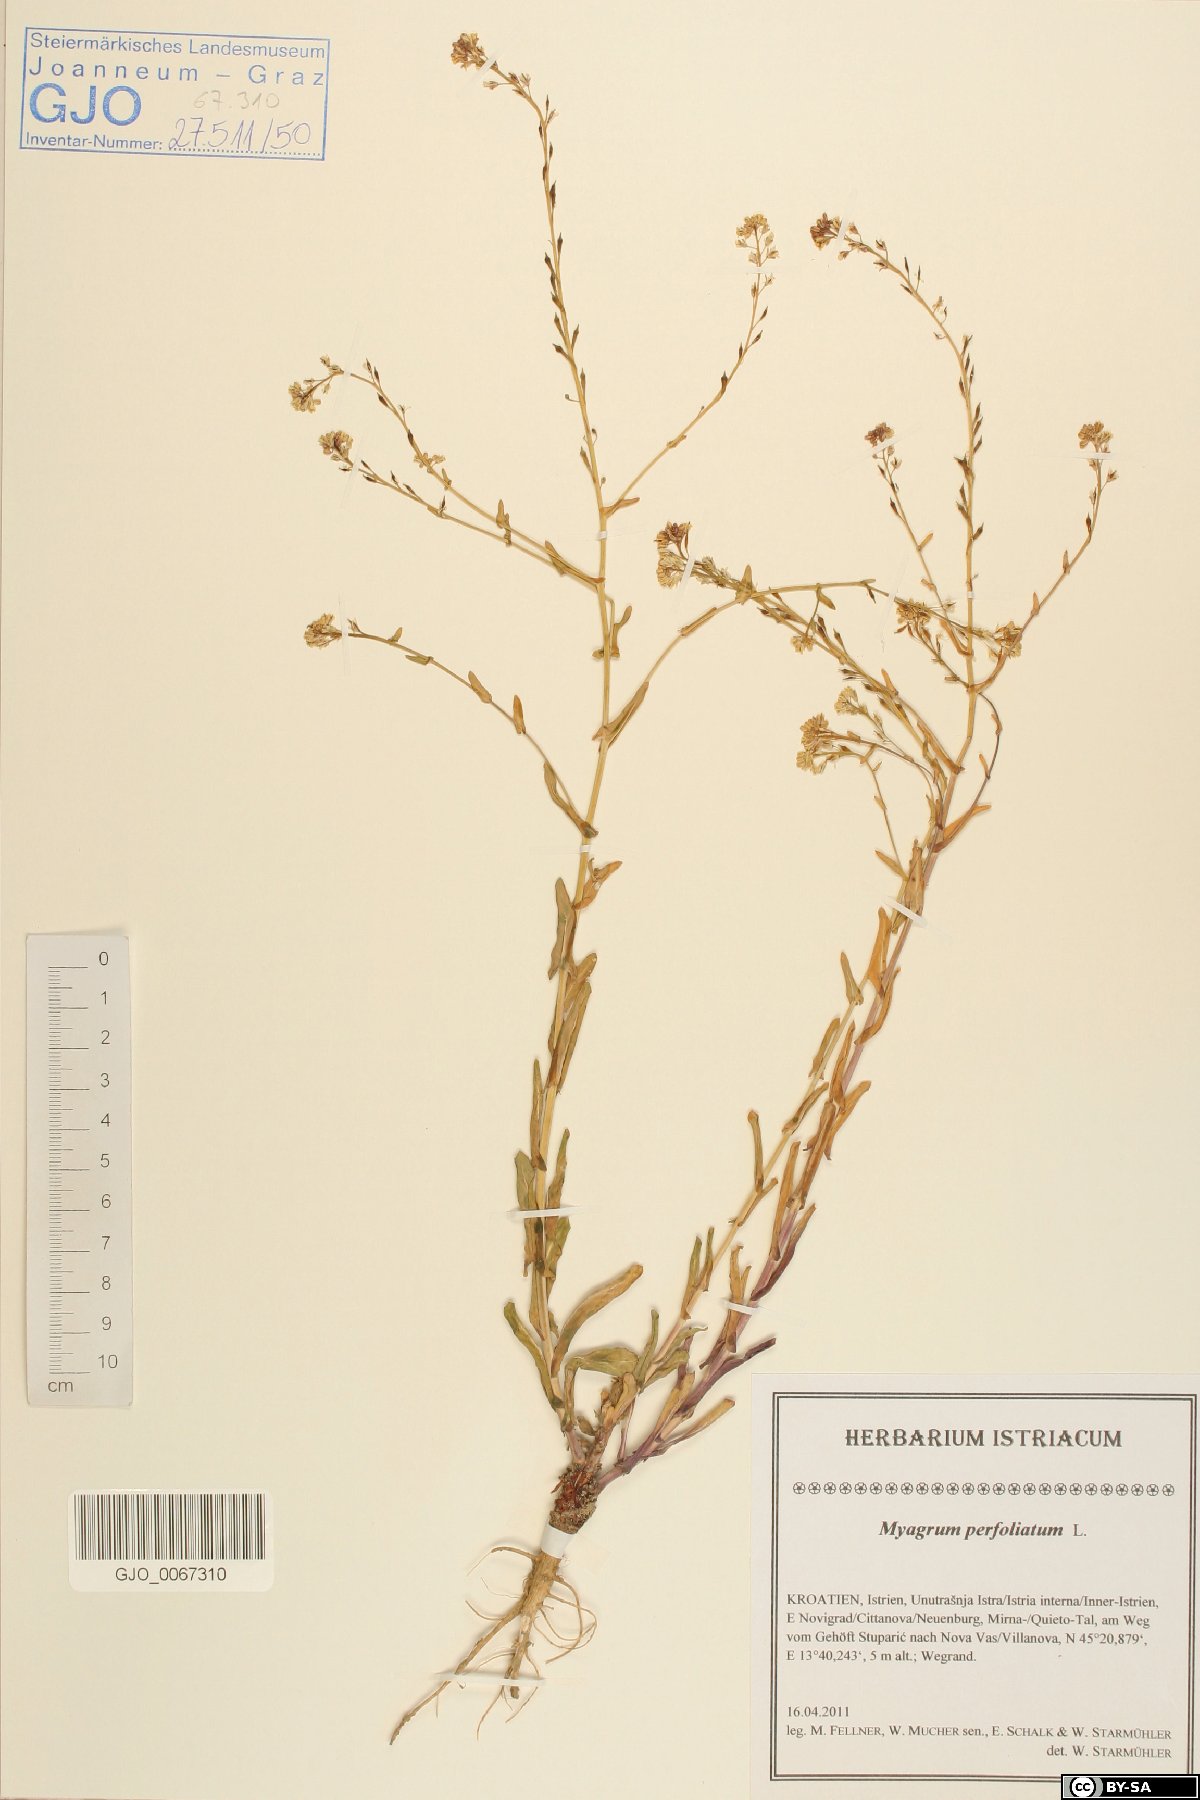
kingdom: Plantae
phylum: Tracheophyta
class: Magnoliopsida
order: Brassicales
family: Brassicaceae
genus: Myagrum
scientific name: Myagrum perfoliatum
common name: Mitre cress
